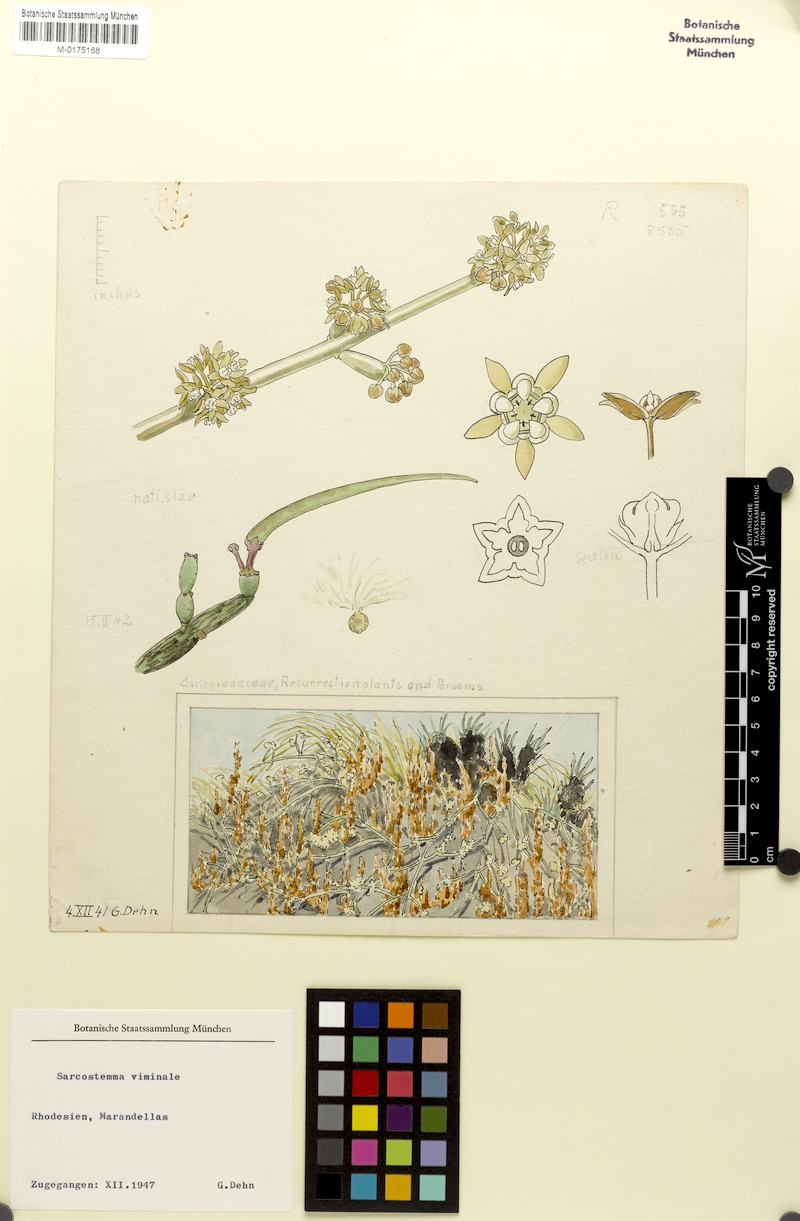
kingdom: Plantae
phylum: Tracheophyta
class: Magnoliopsida
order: Gentianales
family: Apocynaceae
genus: Cynanchum
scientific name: Cynanchum viminale
